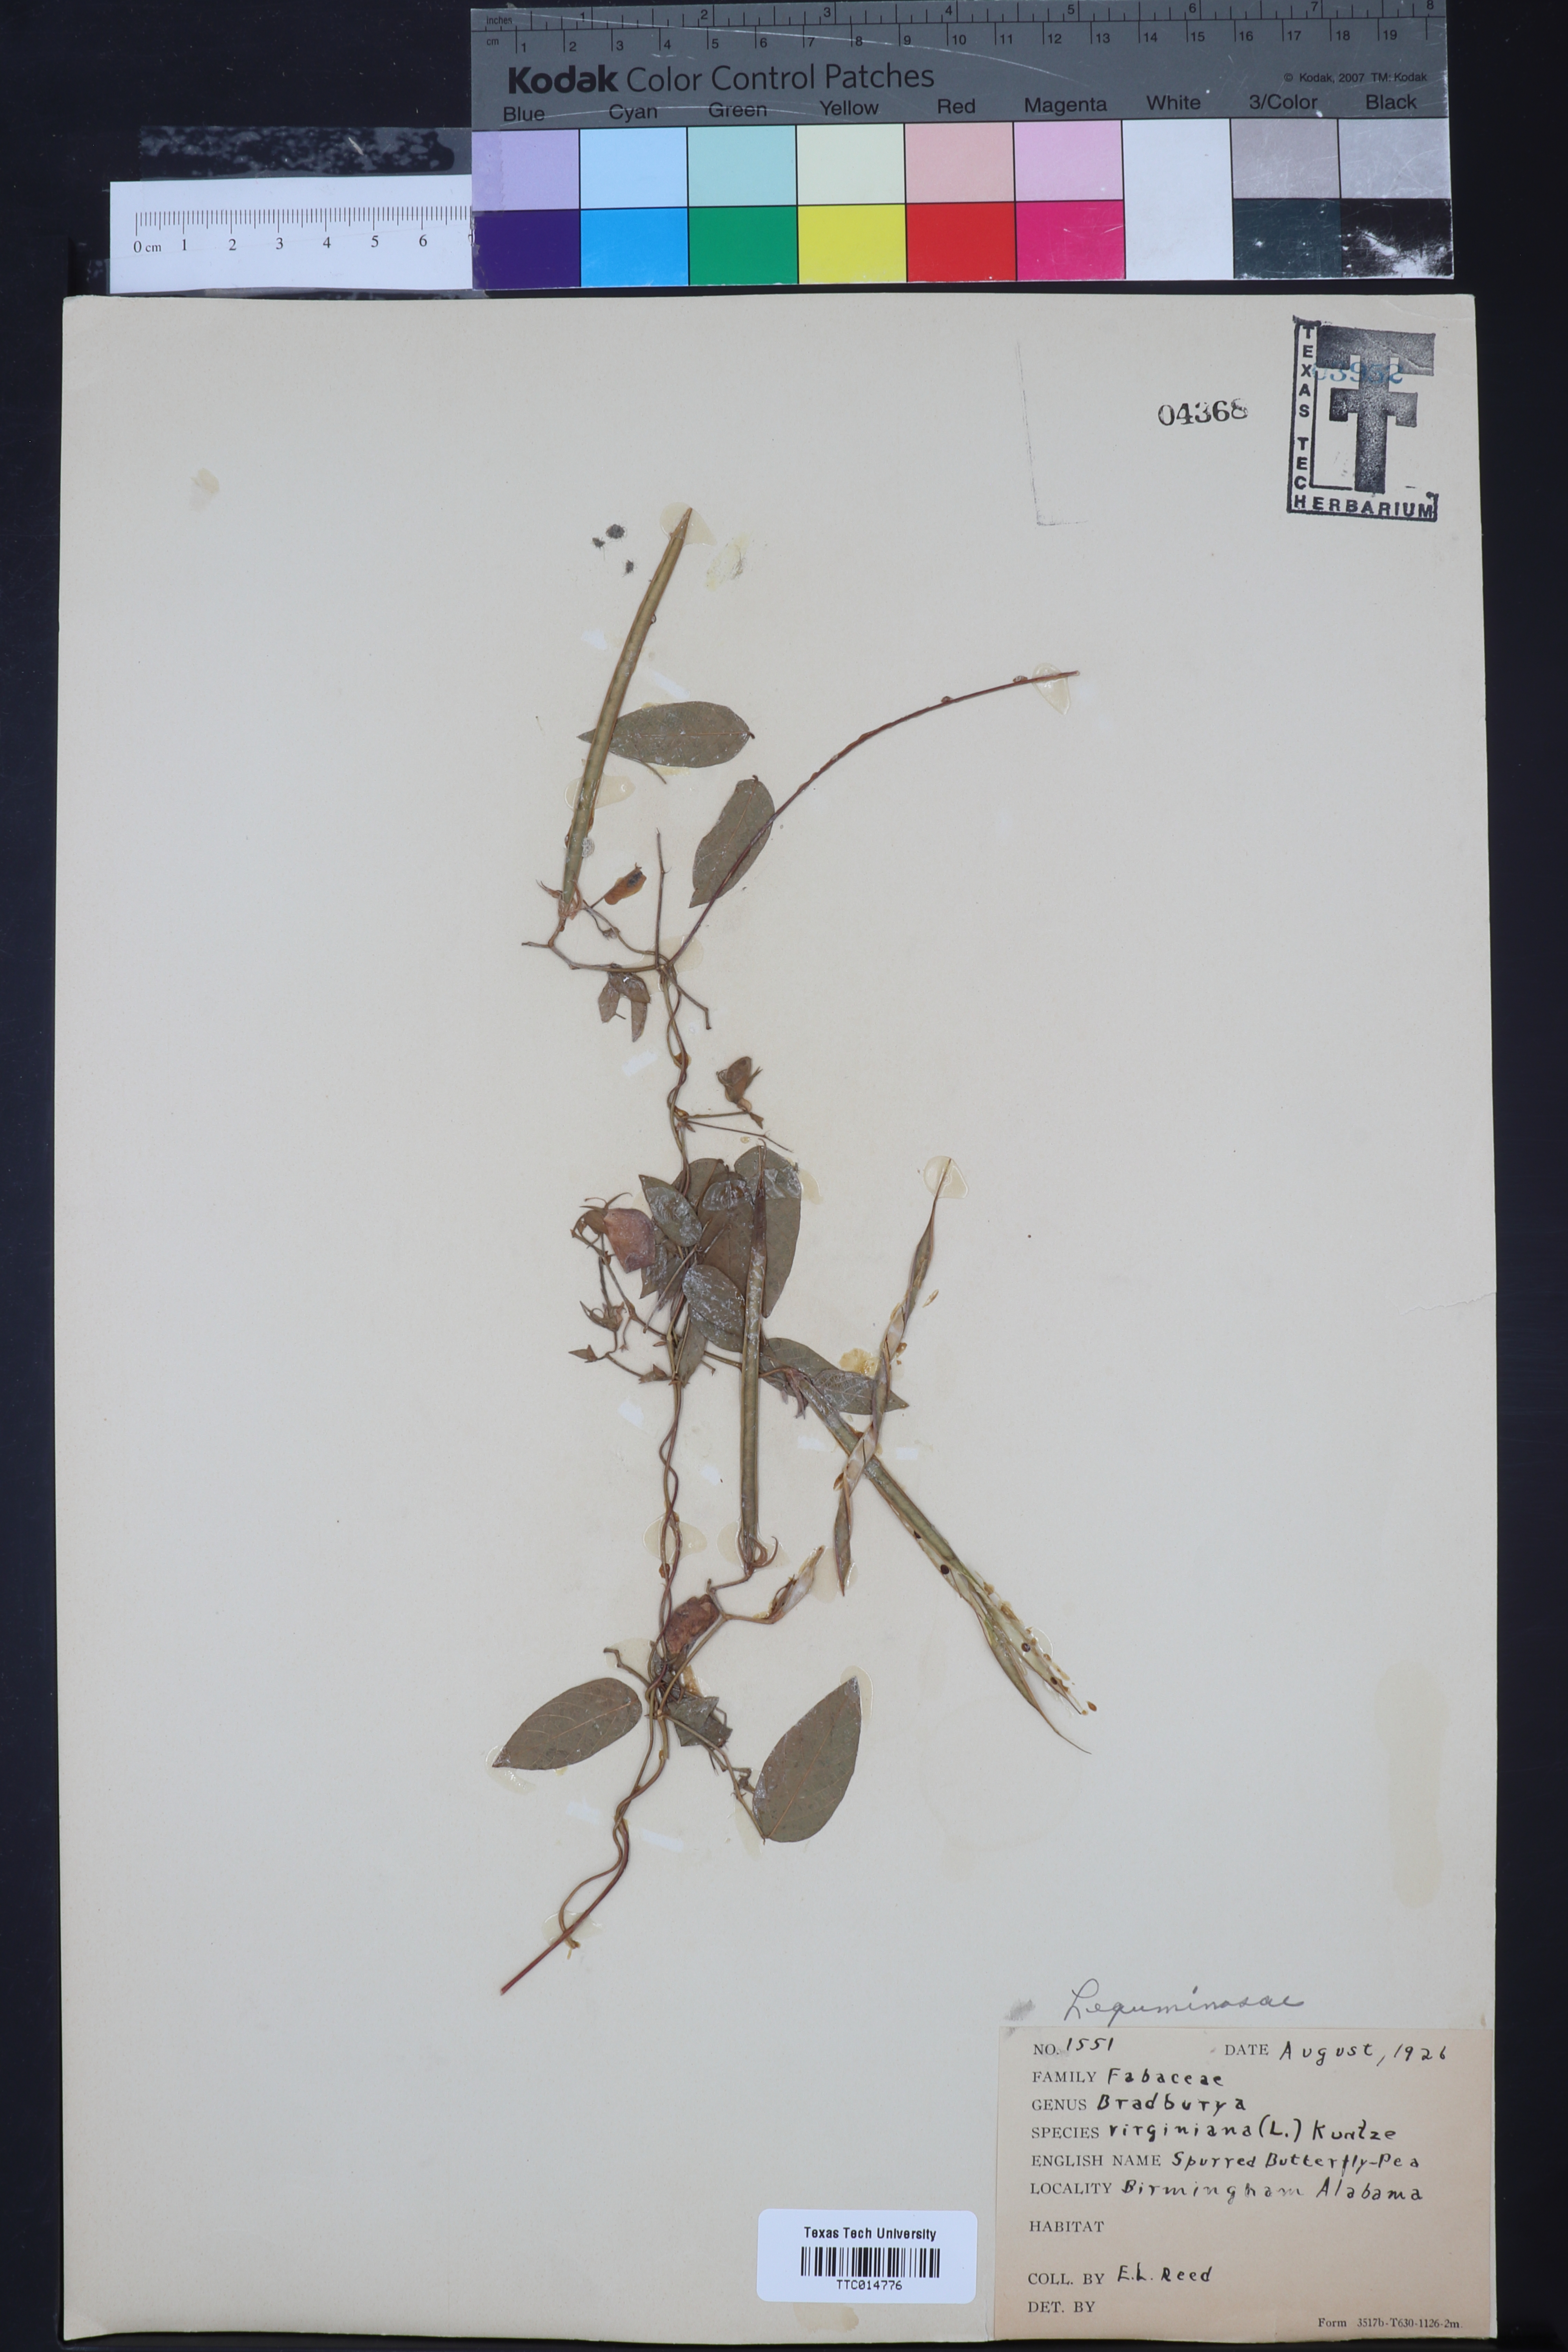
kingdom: Plantae
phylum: Tracheophyta
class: Magnoliopsida
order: Fabales
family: Fabaceae
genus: Centrosema
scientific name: Centrosema virginianum
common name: Butterfly-pea
